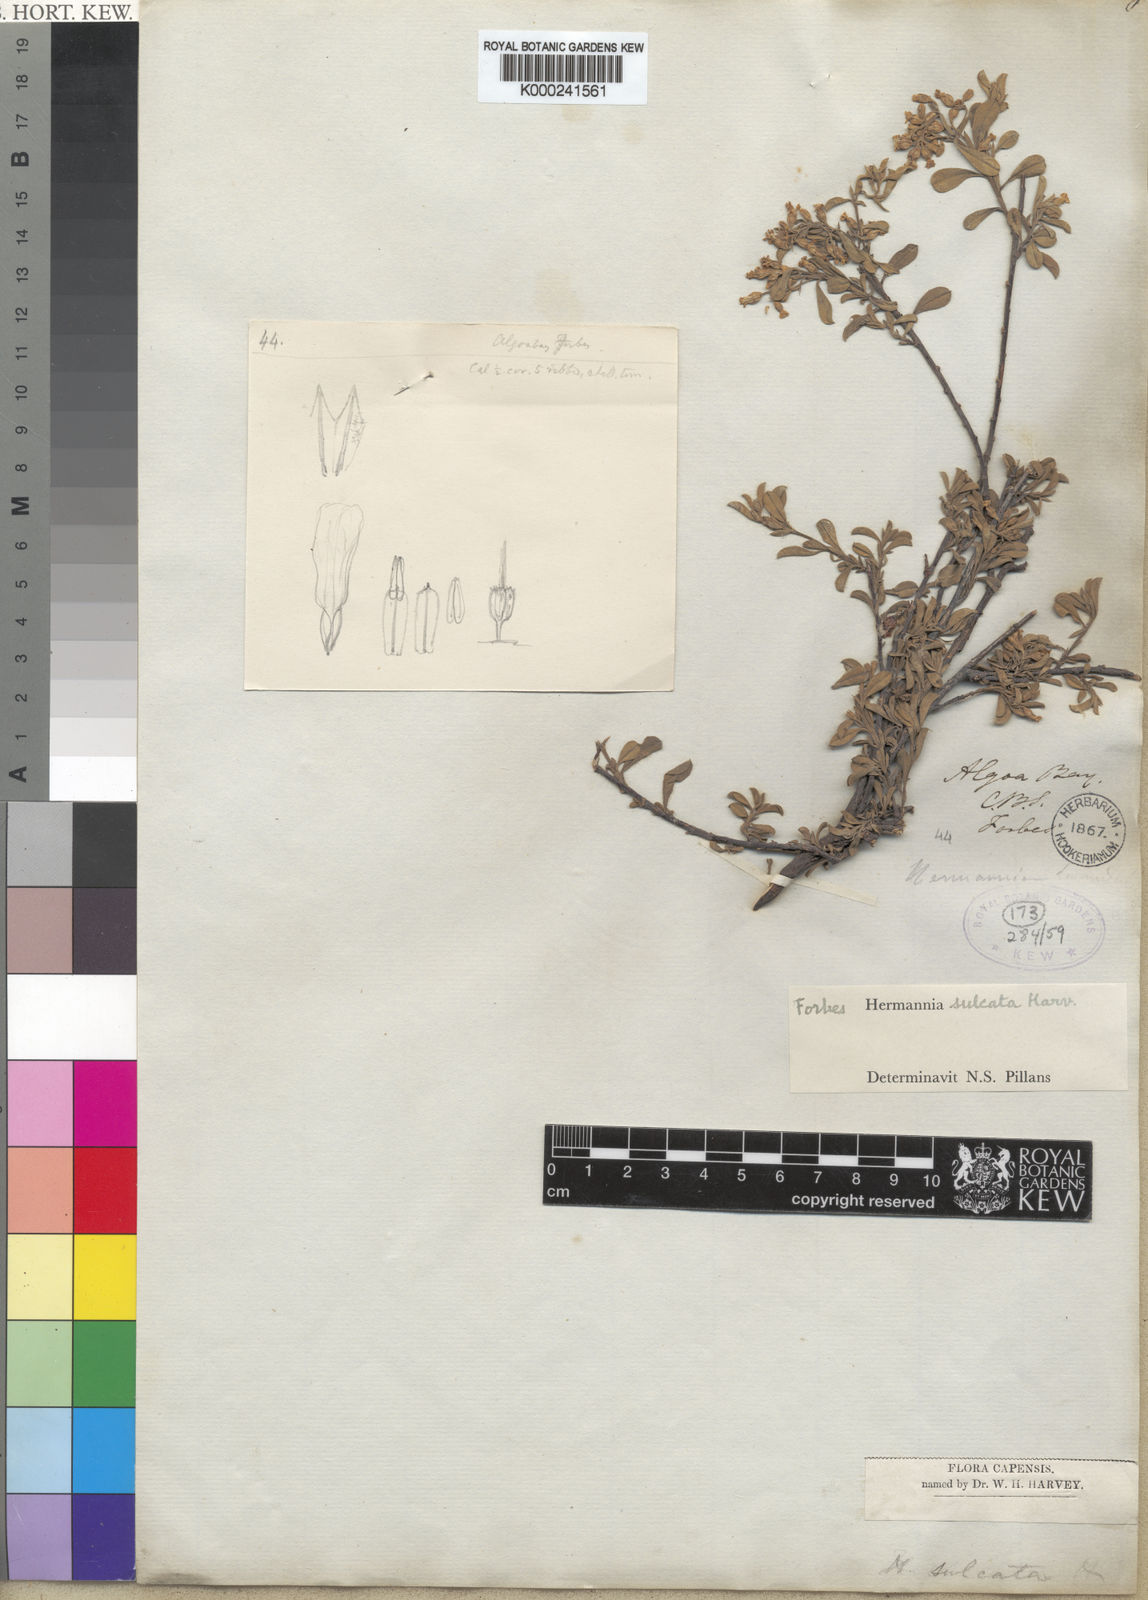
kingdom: Plantae
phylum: Tracheophyta
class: Magnoliopsida
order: Malvales
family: Malvaceae
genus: Hermannia
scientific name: Hermannia sulcata
